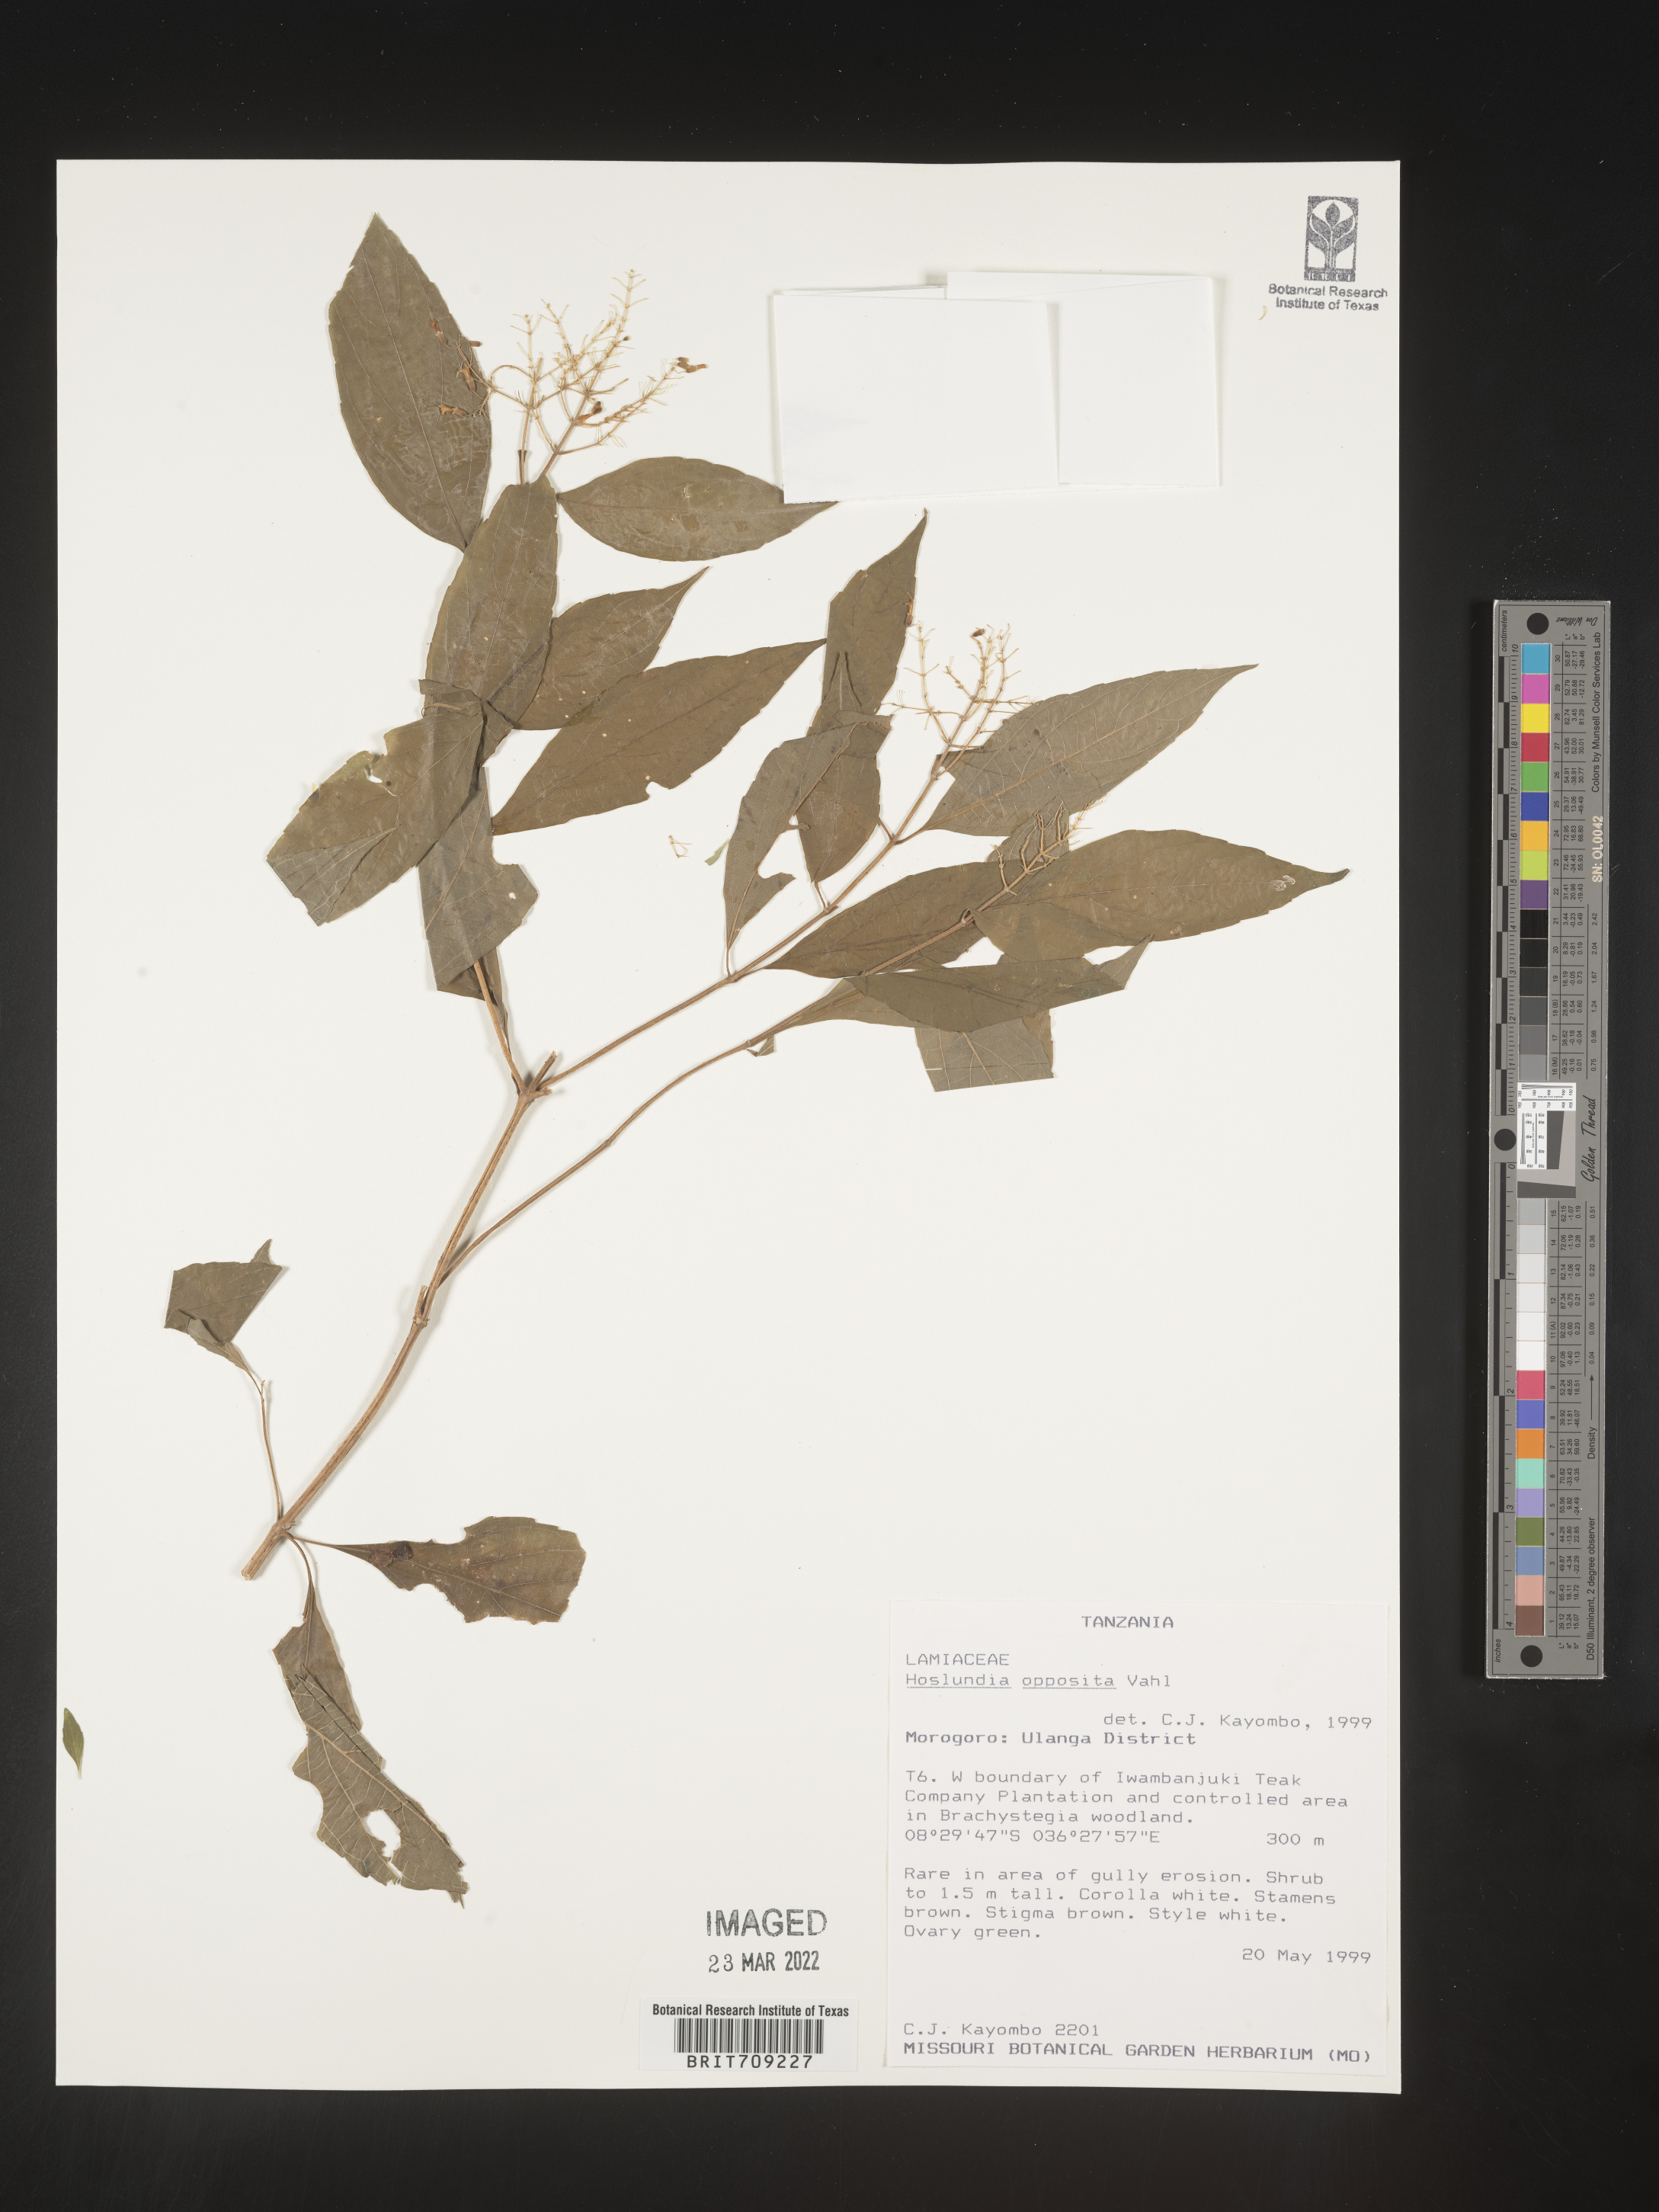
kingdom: Plantae
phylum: Tracheophyta
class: Magnoliopsida
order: Lamiales
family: Lamiaceae
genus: Hoslundia
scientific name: Hoslundia opposita
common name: Kamyuye
